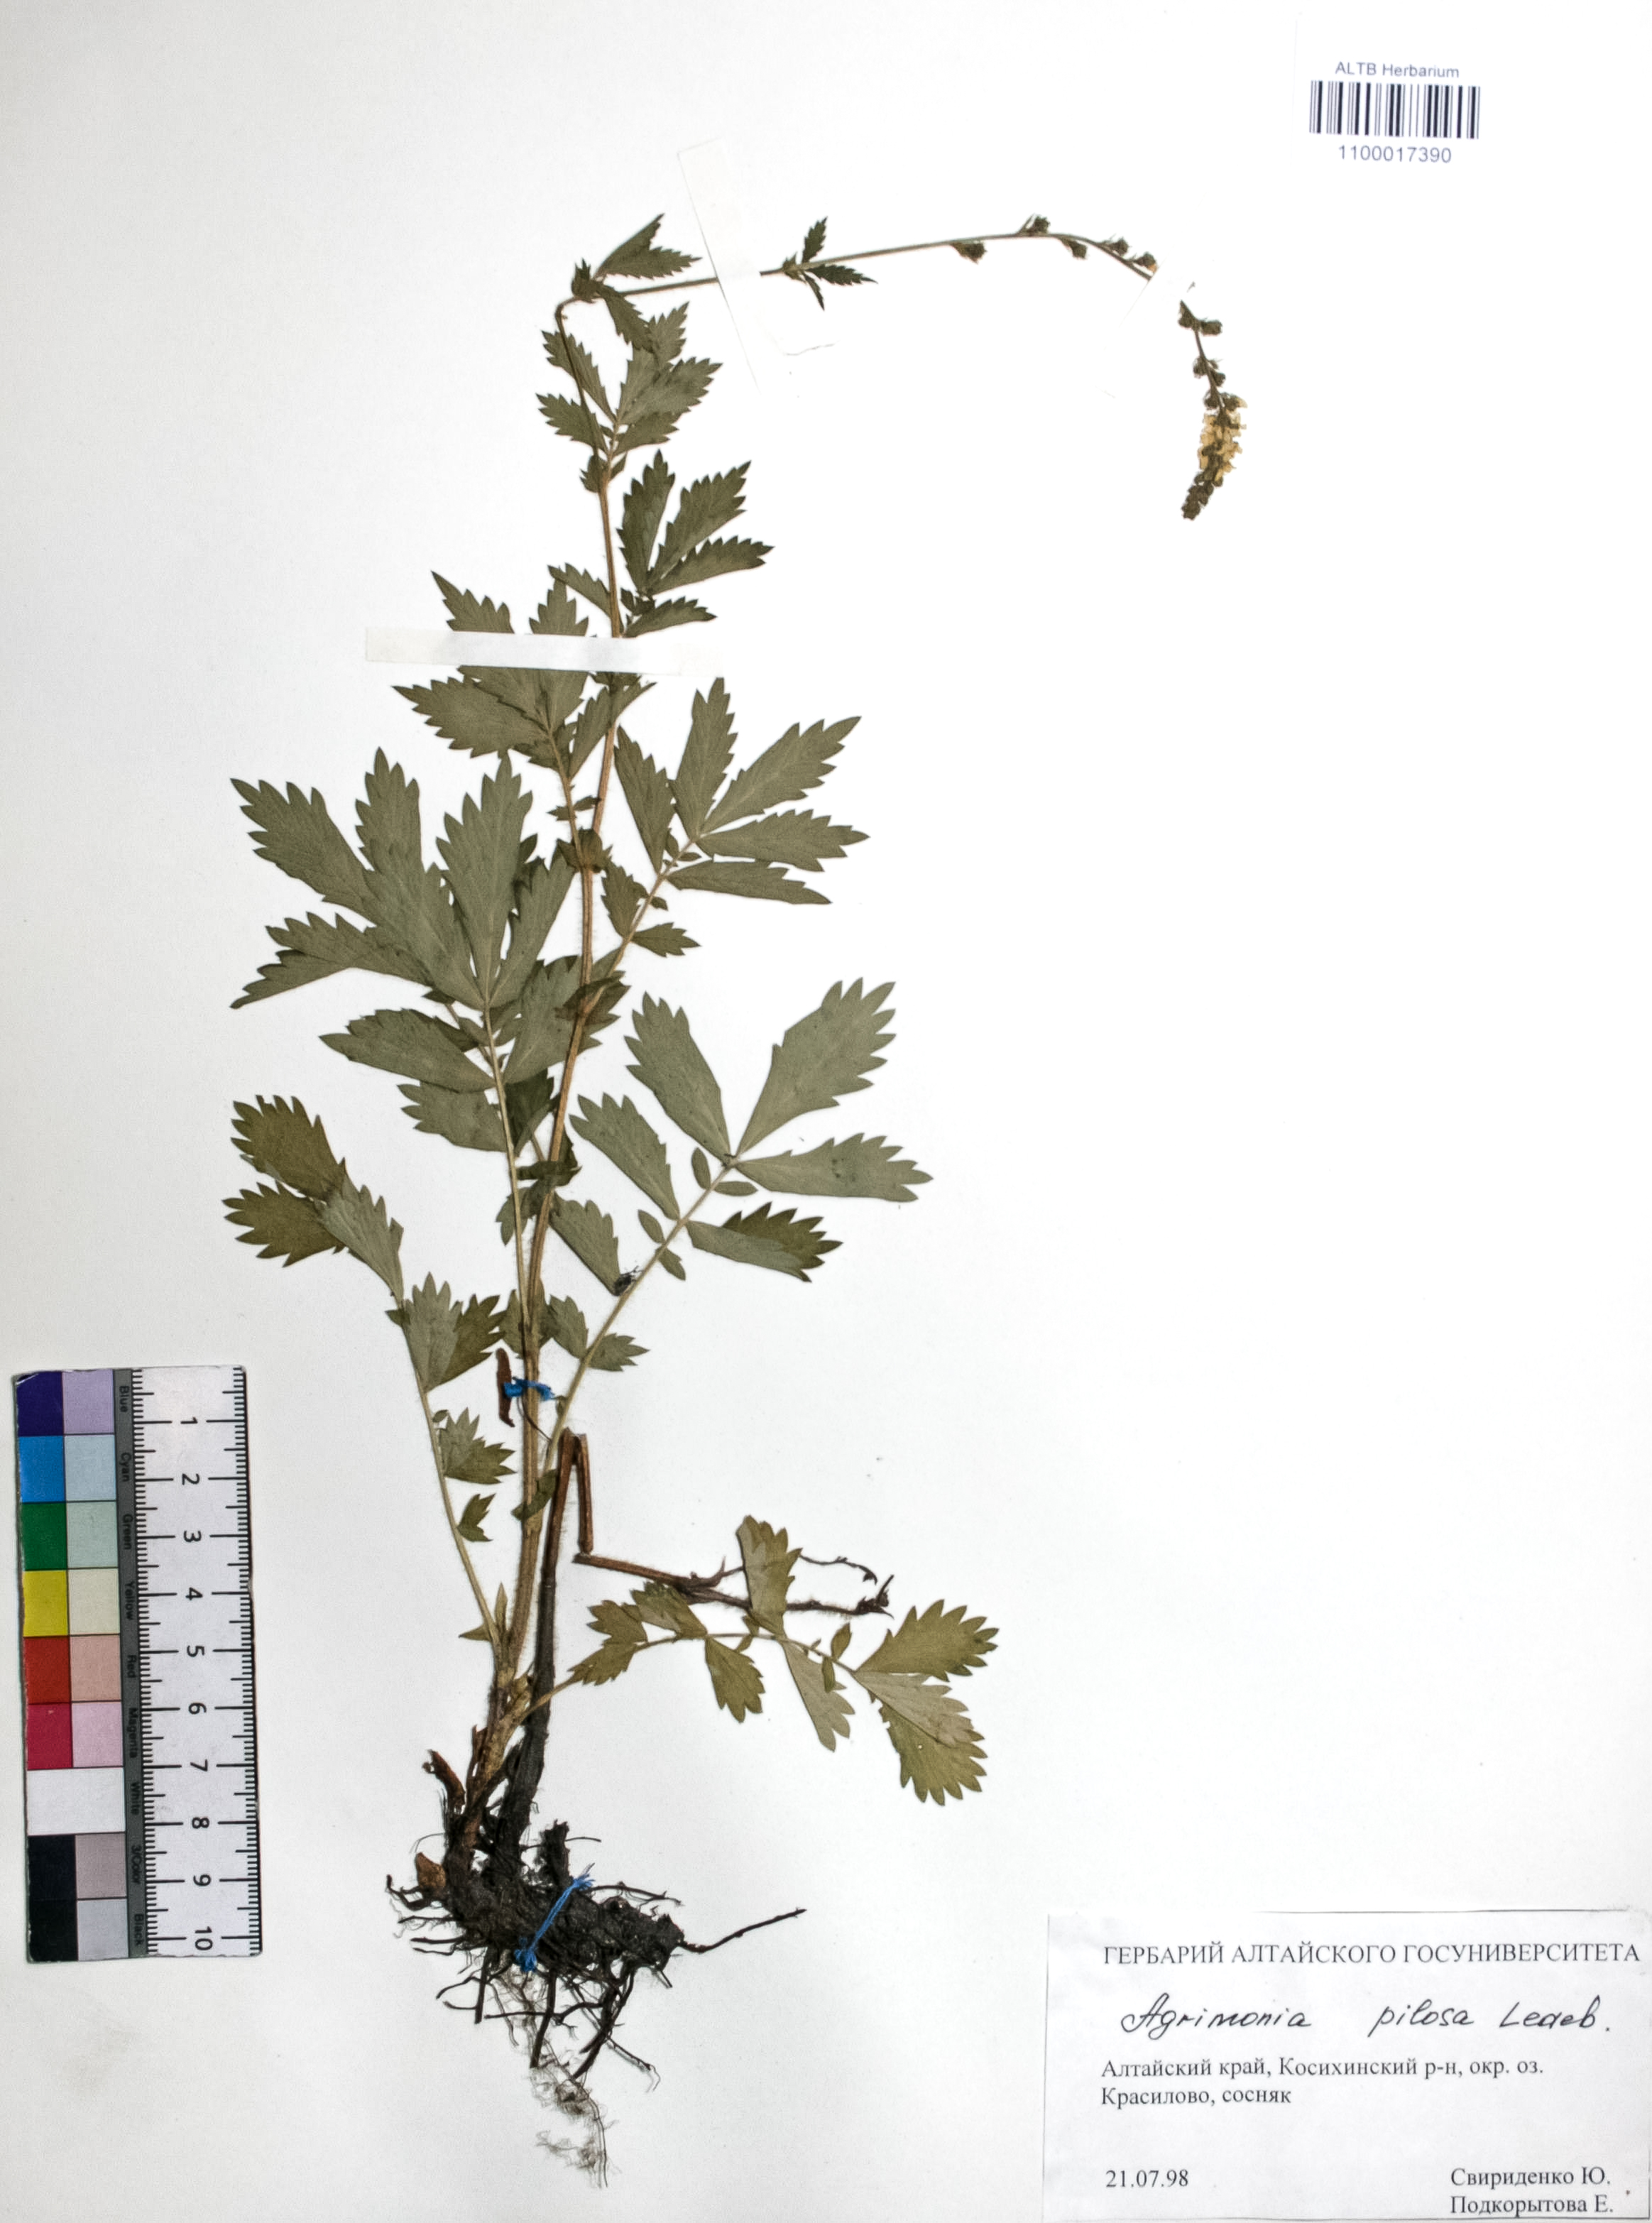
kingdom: Plantae
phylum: Tracheophyta
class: Magnoliopsida
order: Rosales
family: Rosaceae
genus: Agrimonia
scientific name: Agrimonia pilosa
